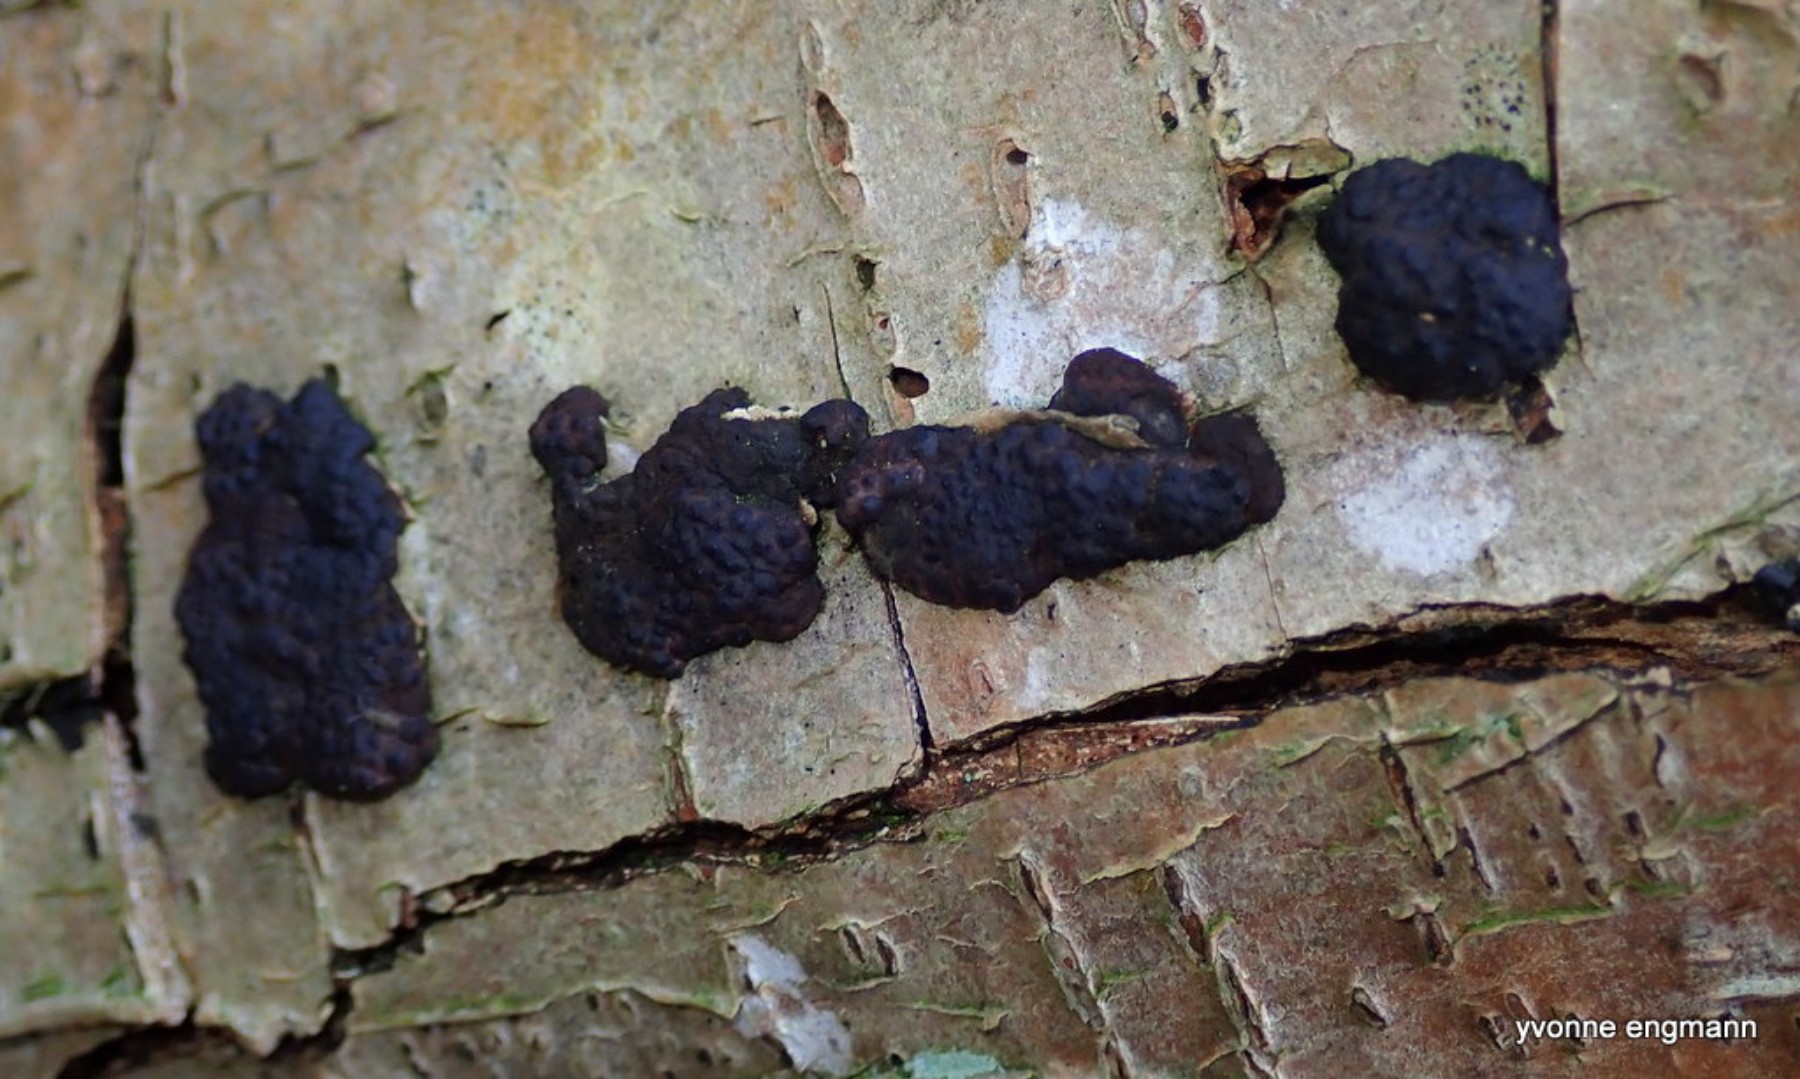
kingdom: Fungi
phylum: Ascomycota
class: Sordariomycetes
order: Xylariales
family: Hypoxylaceae
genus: Jackrogersella
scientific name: Jackrogersella multiformis
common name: foranderlig kulbær
